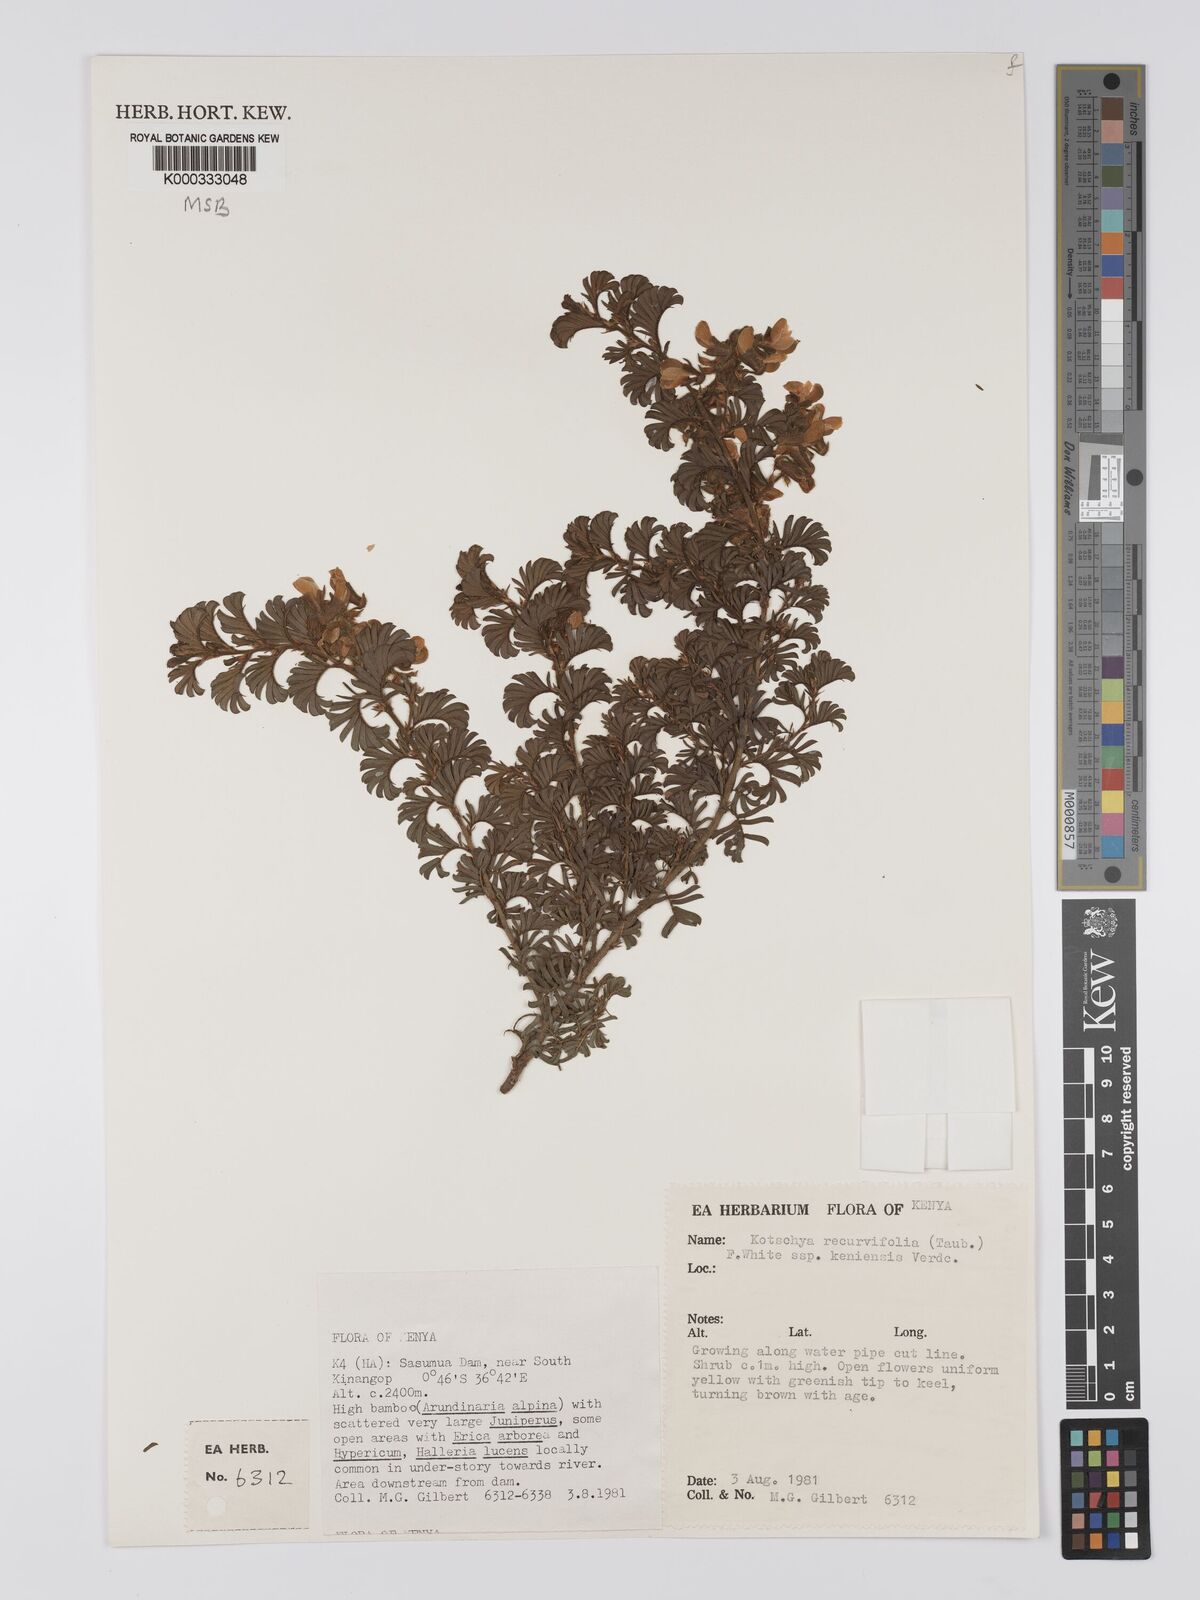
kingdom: Plantae
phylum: Tracheophyta
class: Magnoliopsida
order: Fabales
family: Fabaceae
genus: Kotschya
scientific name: Kotschya recurvifolia
